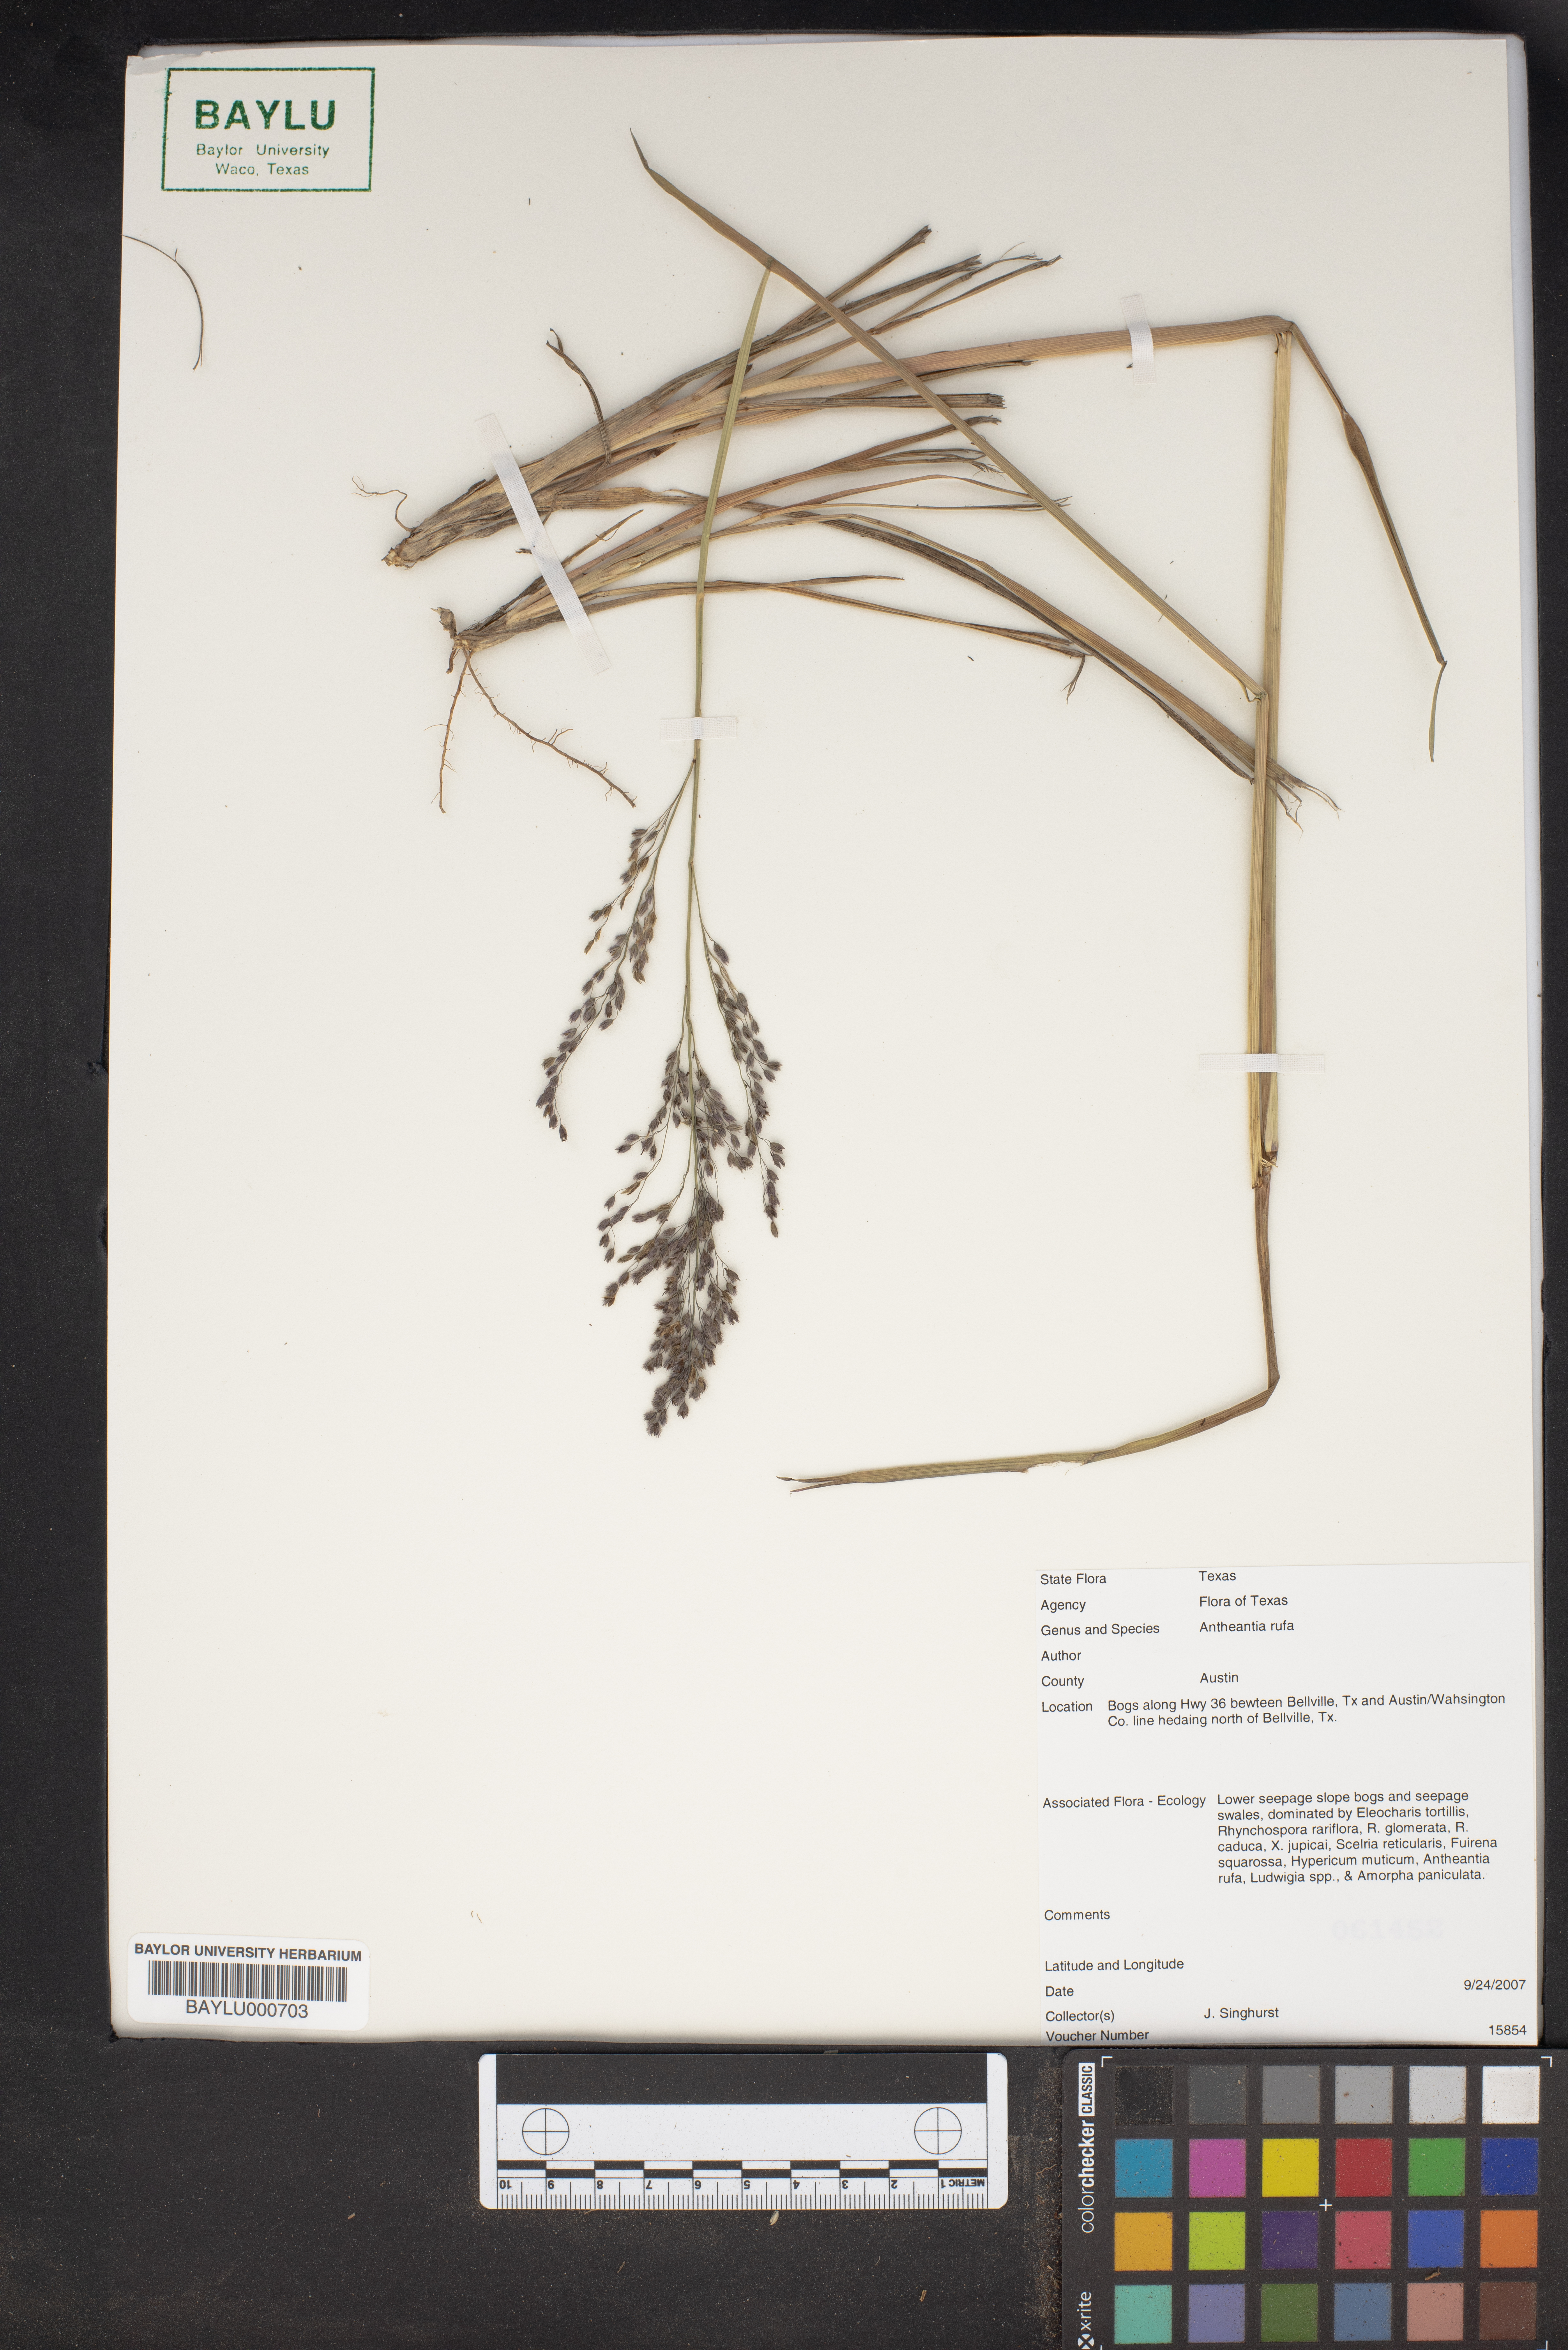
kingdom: Plantae
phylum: Tracheophyta
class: Liliopsida
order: Poales
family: Poaceae
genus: Anthenantia
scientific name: Anthenantia rufa
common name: Purple silkyscale
